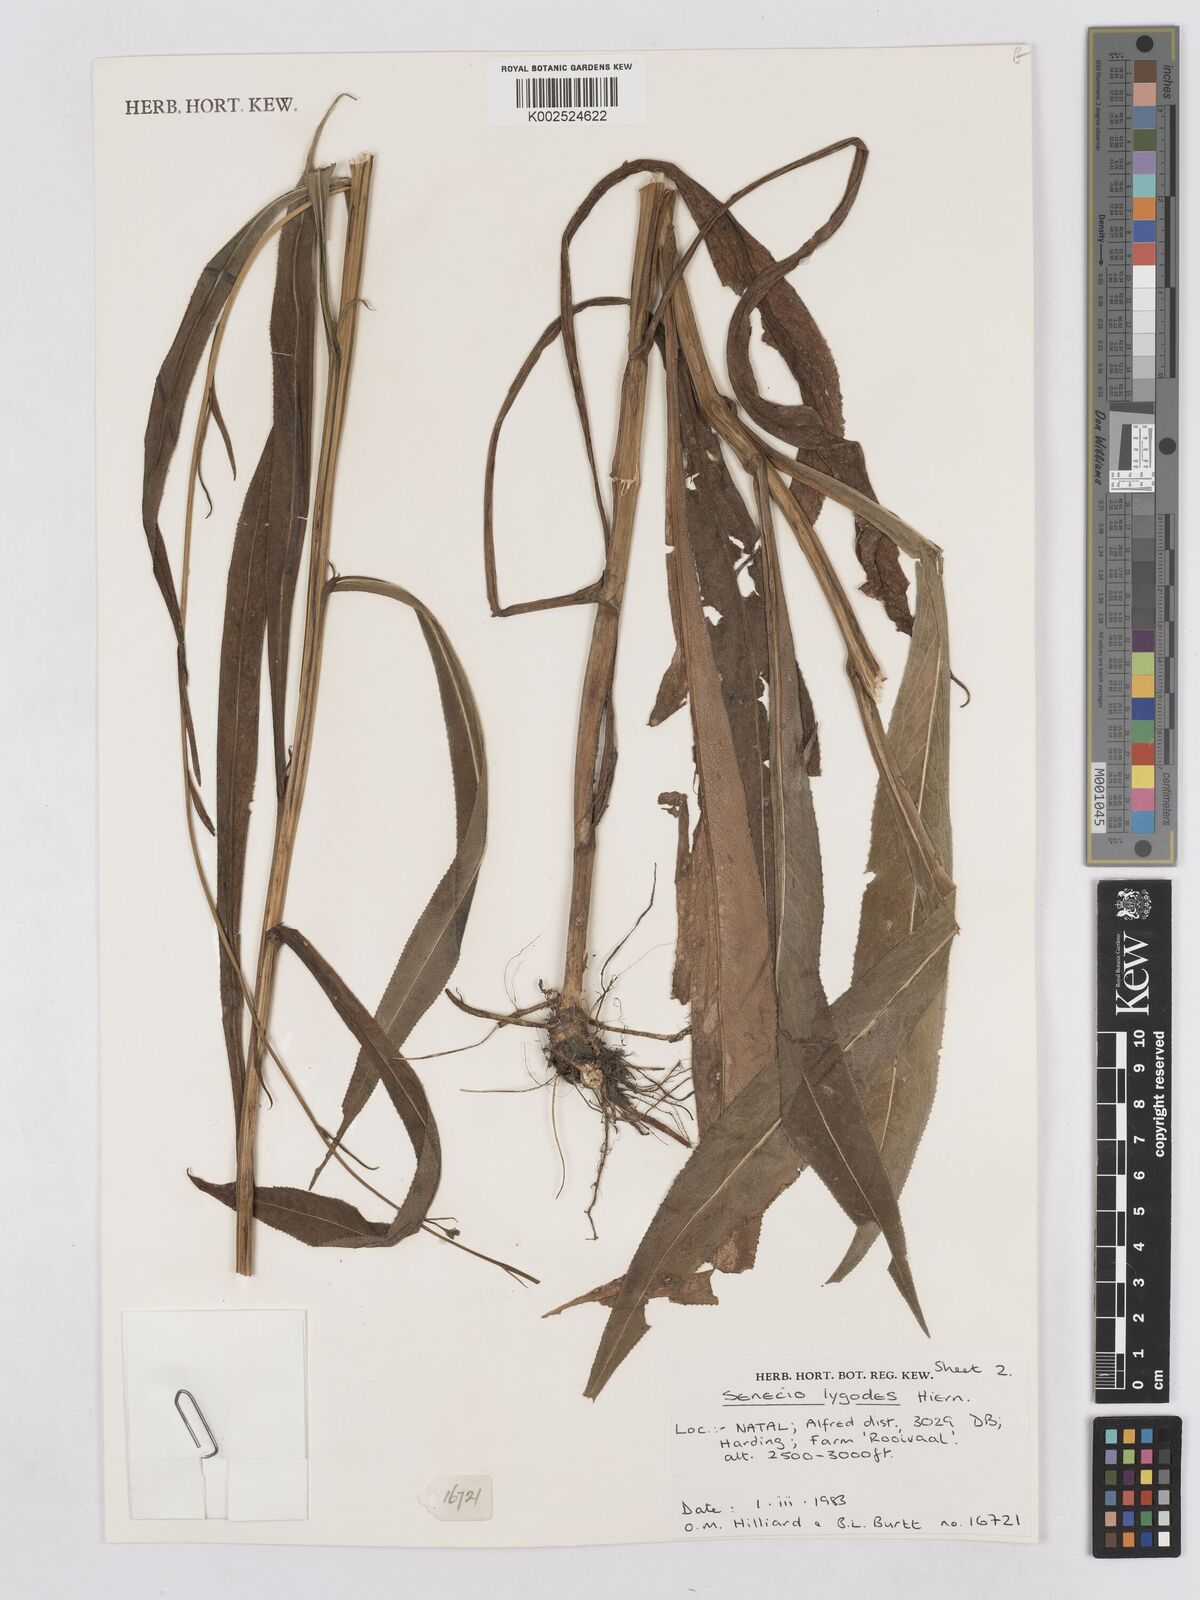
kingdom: Plantae
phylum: Tracheophyta
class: Magnoliopsida
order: Asterales
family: Asteraceae
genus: Senecio
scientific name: Senecio inornatus
